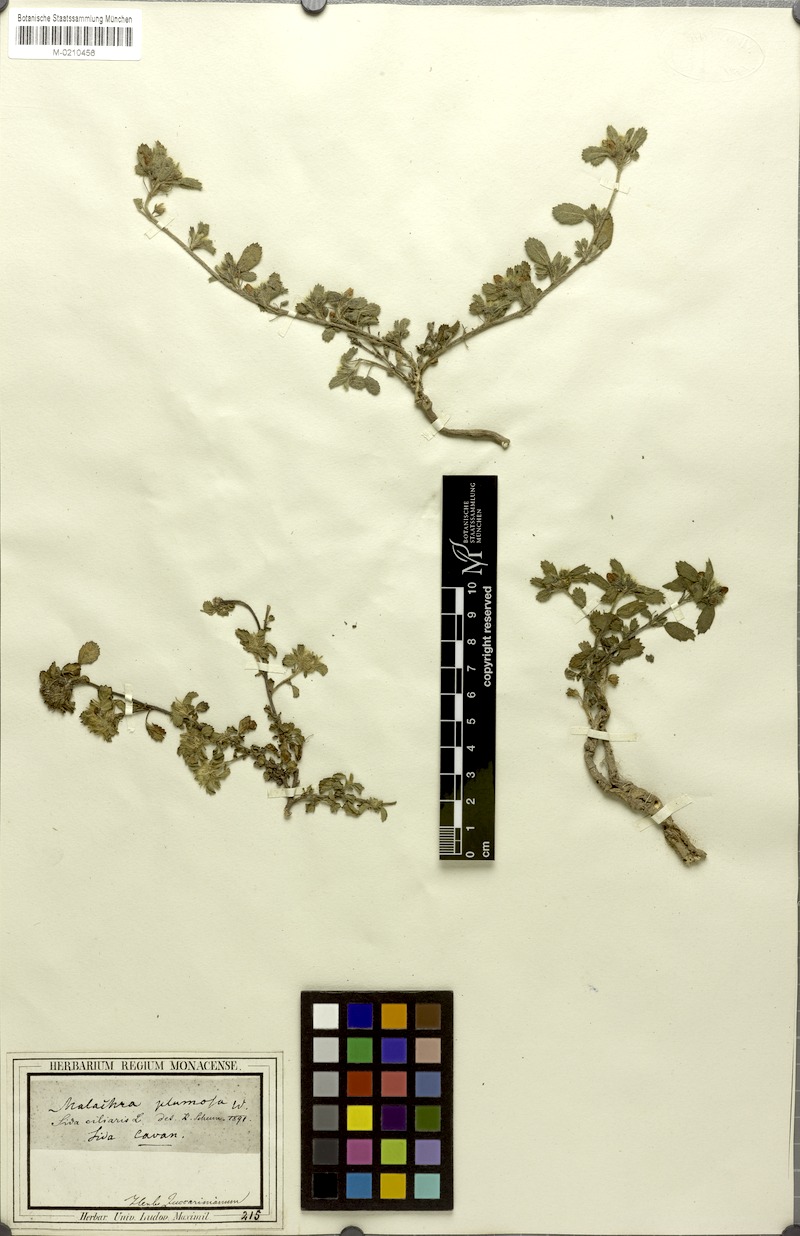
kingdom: Plantae
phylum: Tracheophyta
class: Magnoliopsida
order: Malvales
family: Malvaceae
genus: Sida
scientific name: Sida ciliaris
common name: Bracted fanpetals
